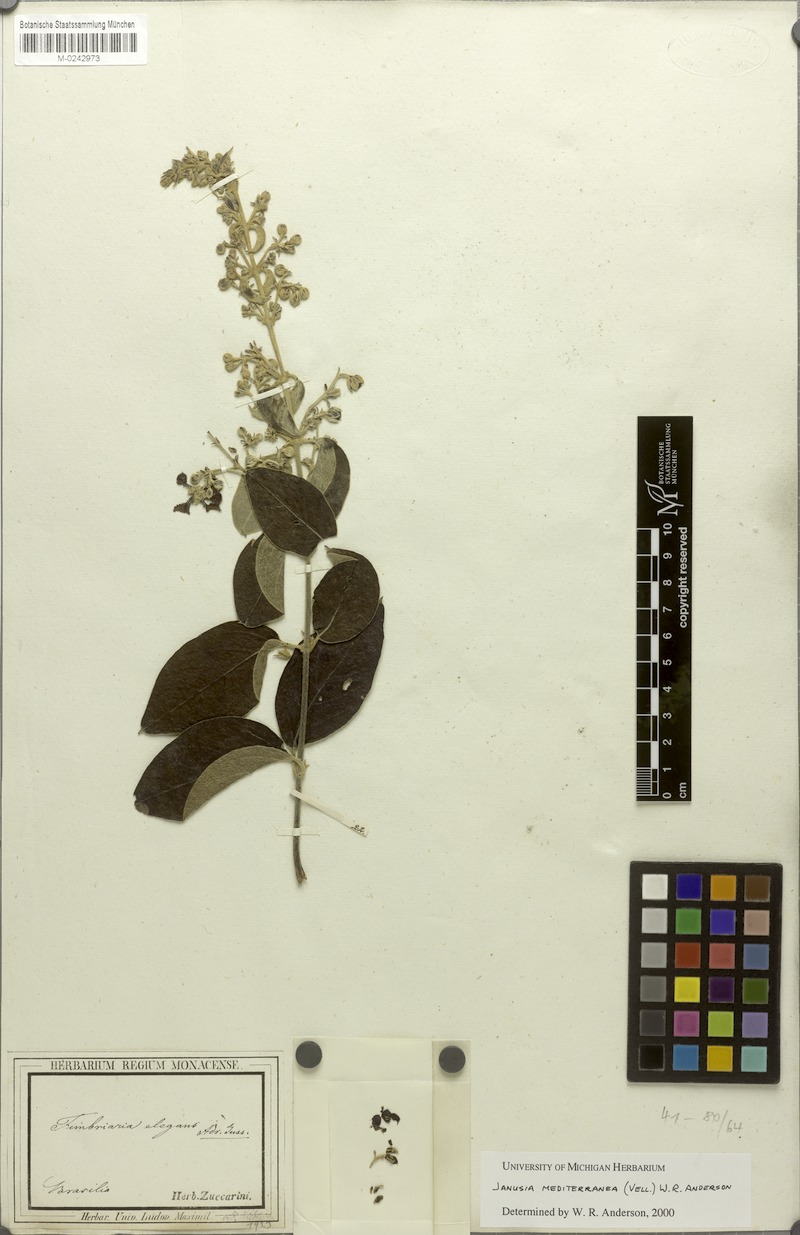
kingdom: Plantae
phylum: Tracheophyta
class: Magnoliopsida
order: Malpighiales
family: Malpighiaceae
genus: Janusia
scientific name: Janusia mediterranea
